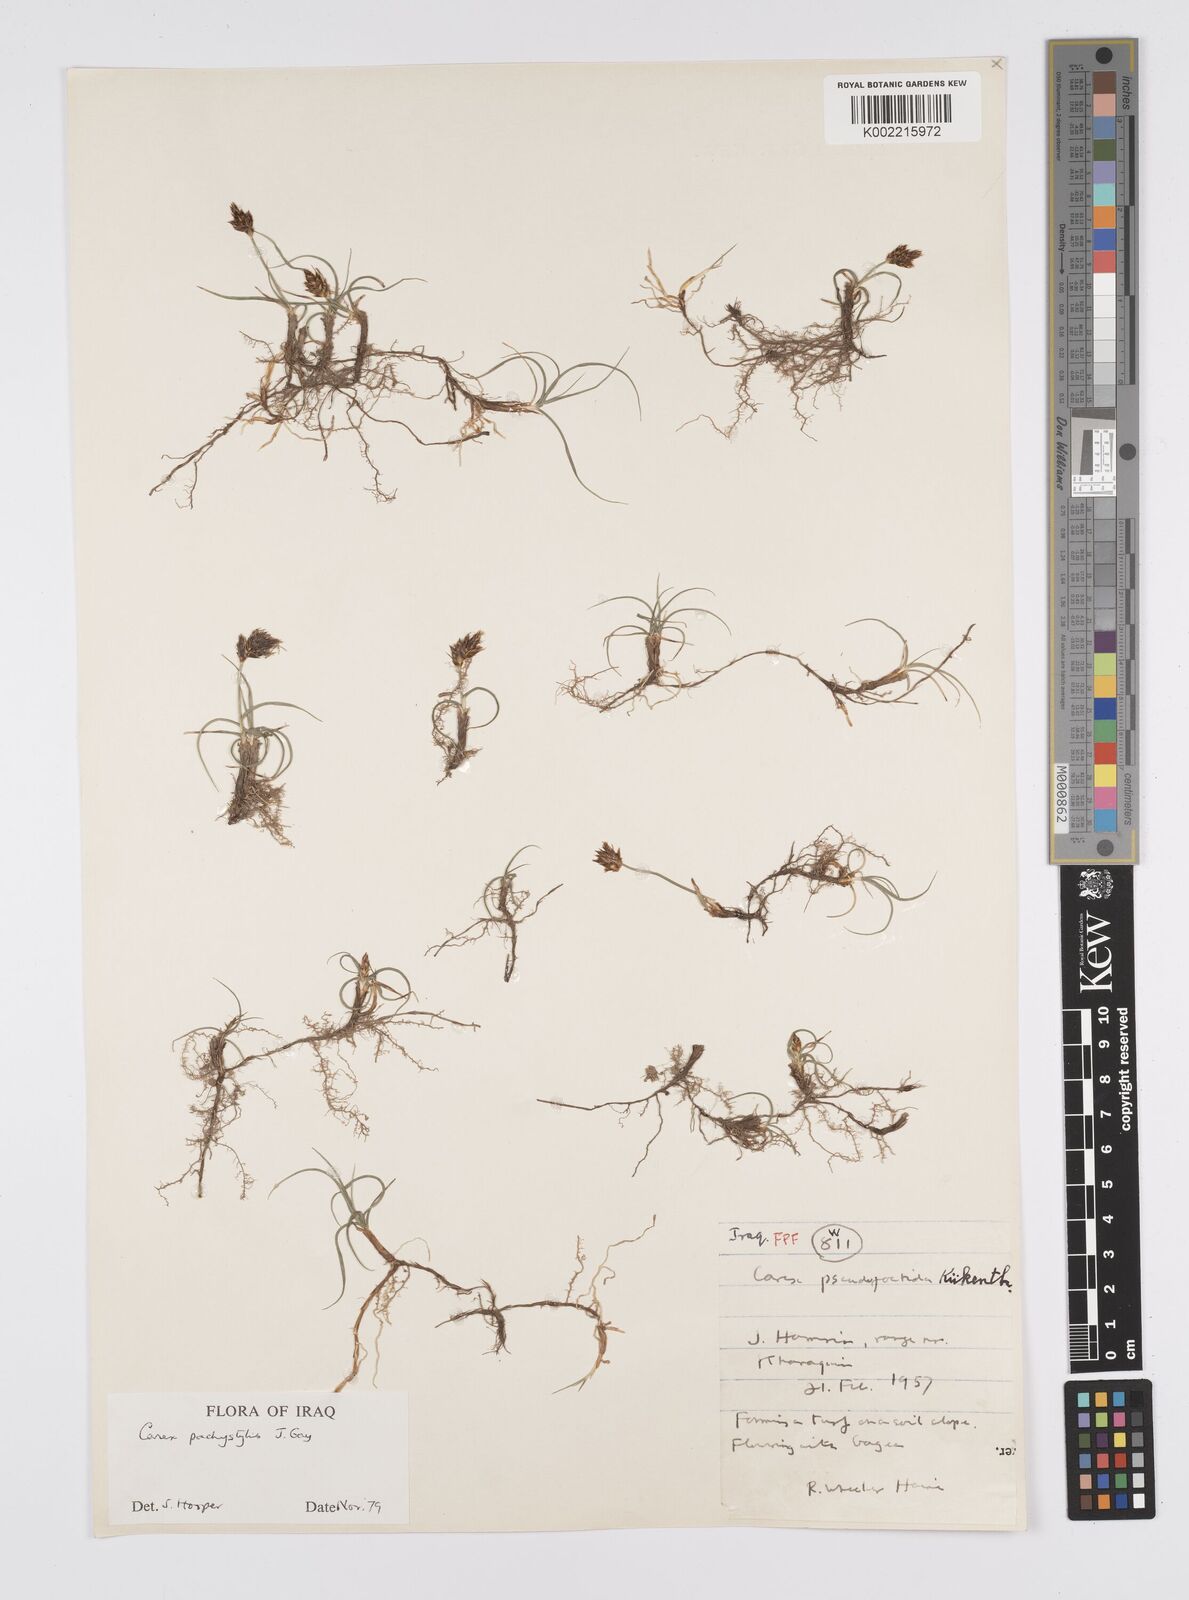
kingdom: Plantae
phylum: Tracheophyta
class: Liliopsida
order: Poales
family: Cyperaceae
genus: Carex
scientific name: Carex pachystylis
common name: Thick-stem sedge
